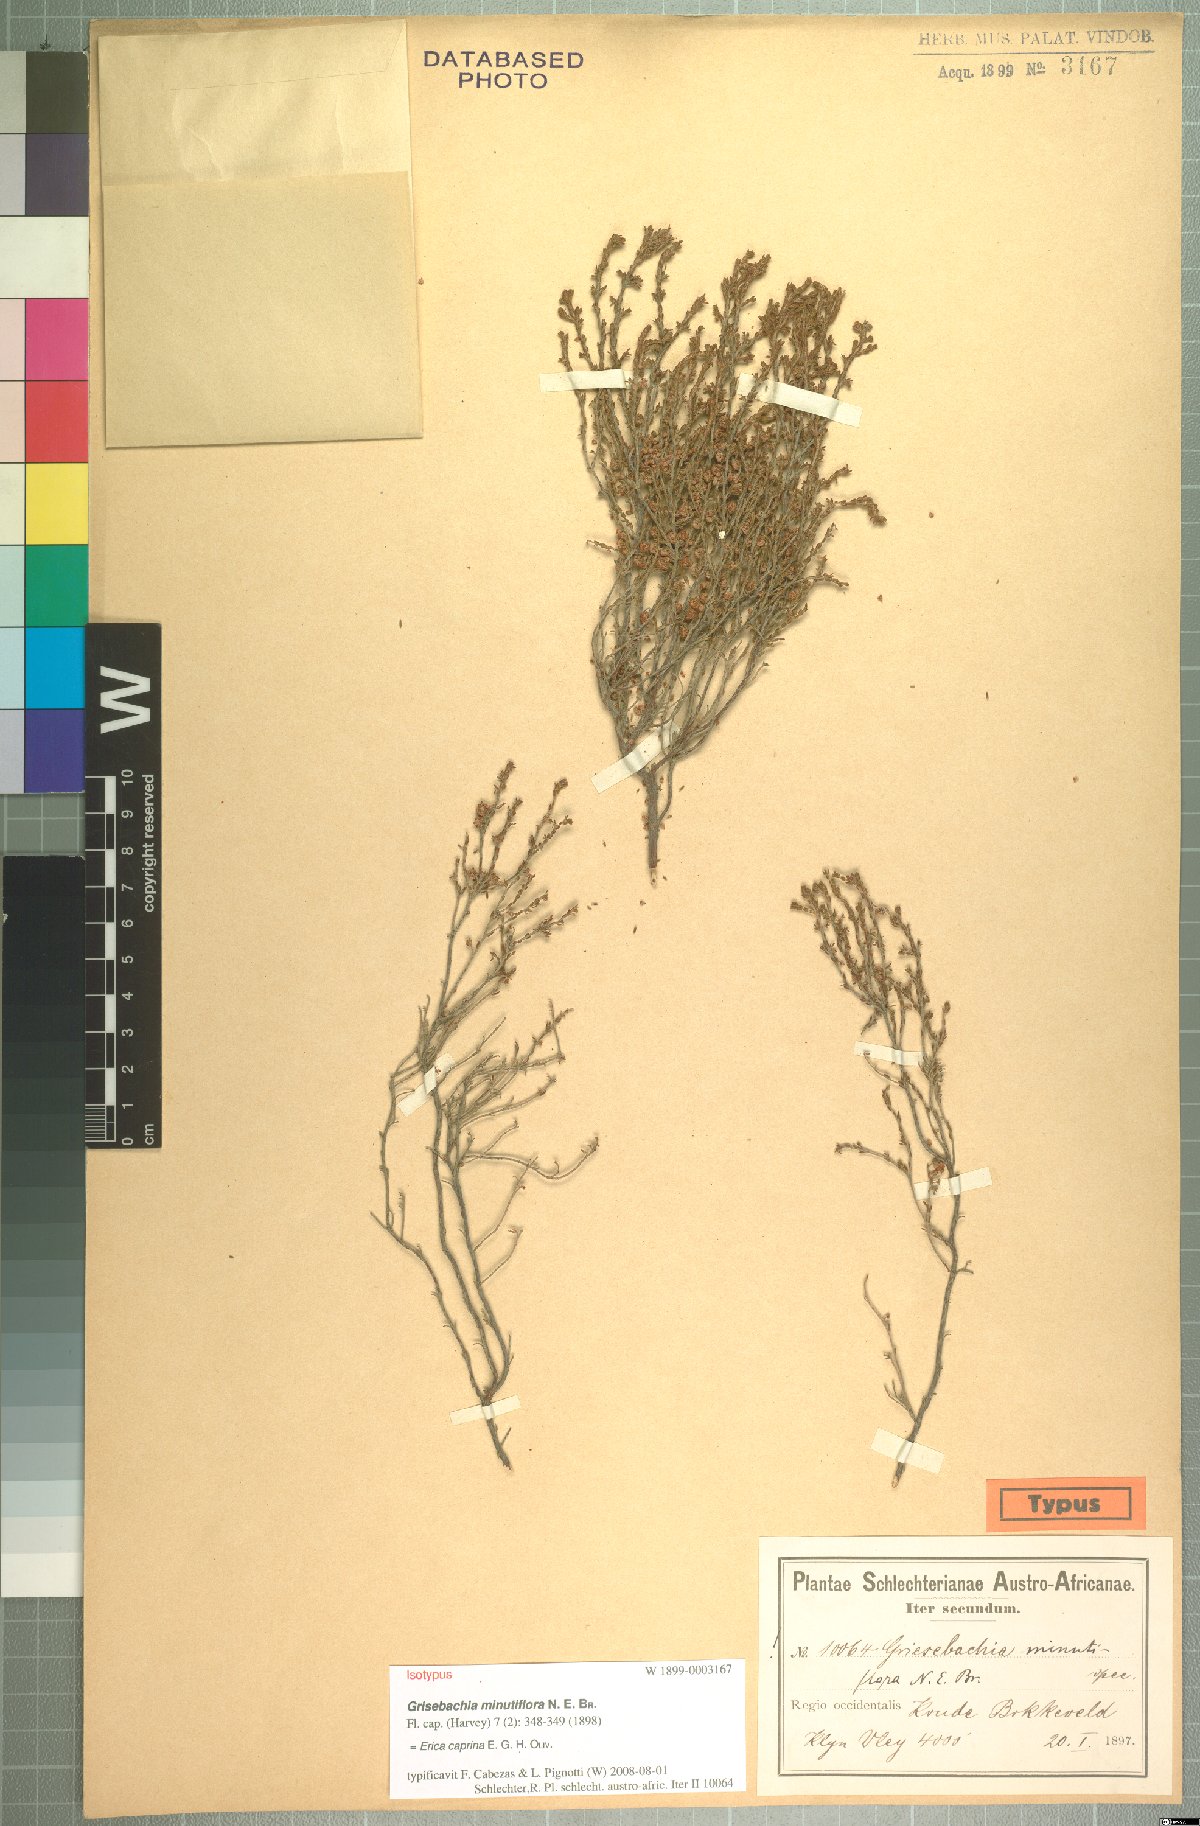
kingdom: Plantae
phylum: Tracheophyta
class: Magnoliopsida
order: Ericales
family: Ericaceae
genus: Erica
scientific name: Erica caprina
